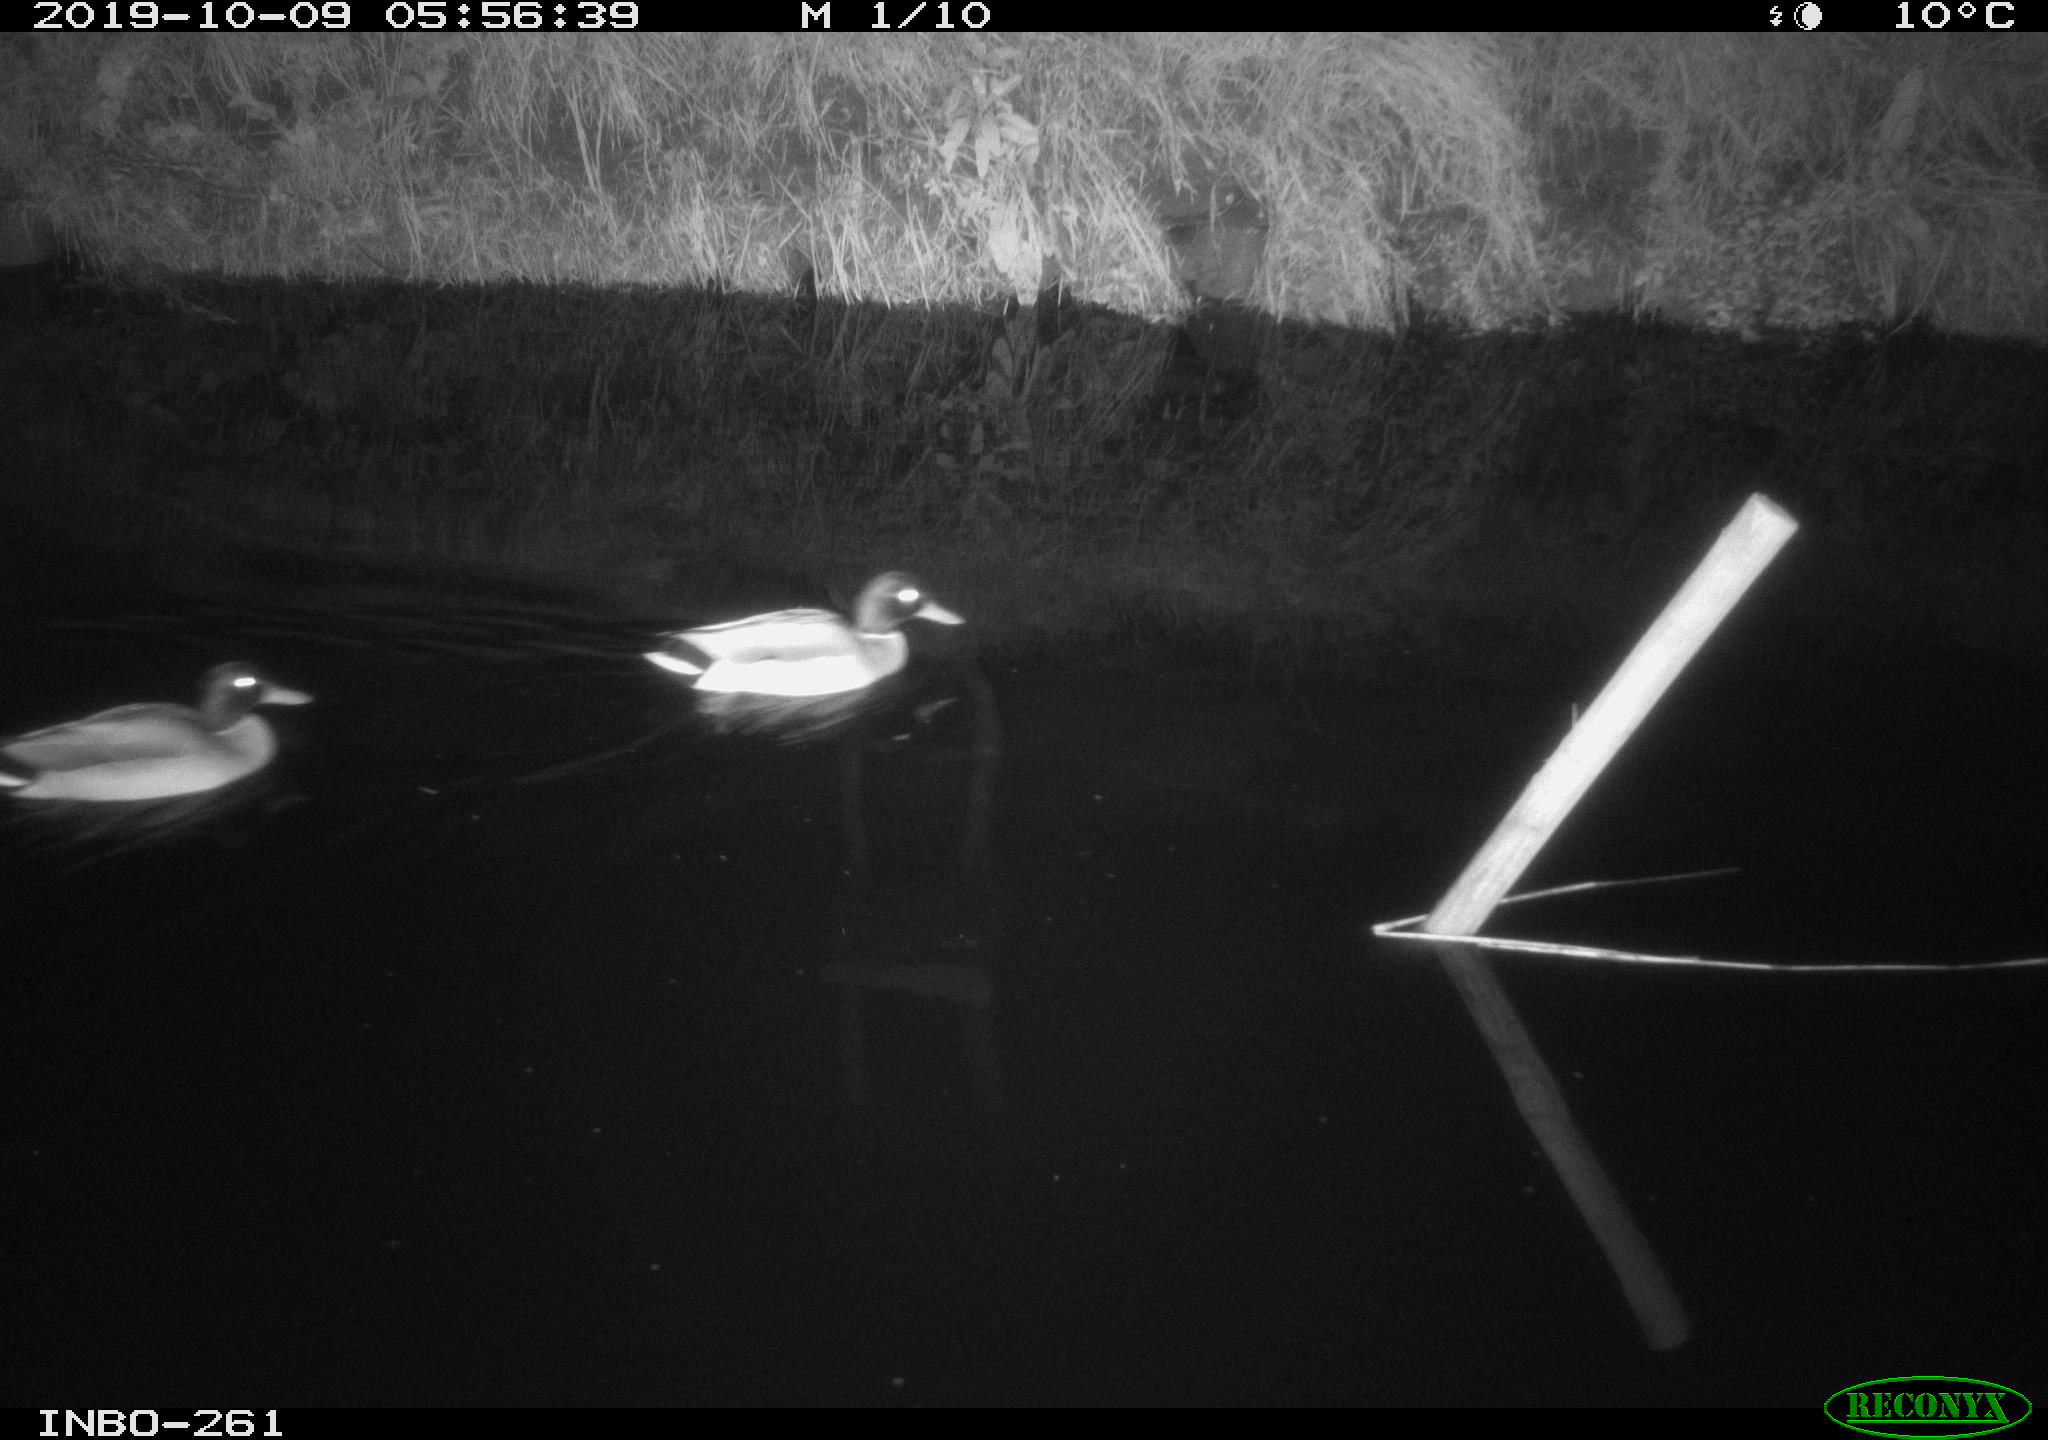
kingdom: Animalia
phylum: Chordata
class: Aves
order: Anseriformes
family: Anatidae
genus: Anas
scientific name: Anas platyrhynchos
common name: Mallard
